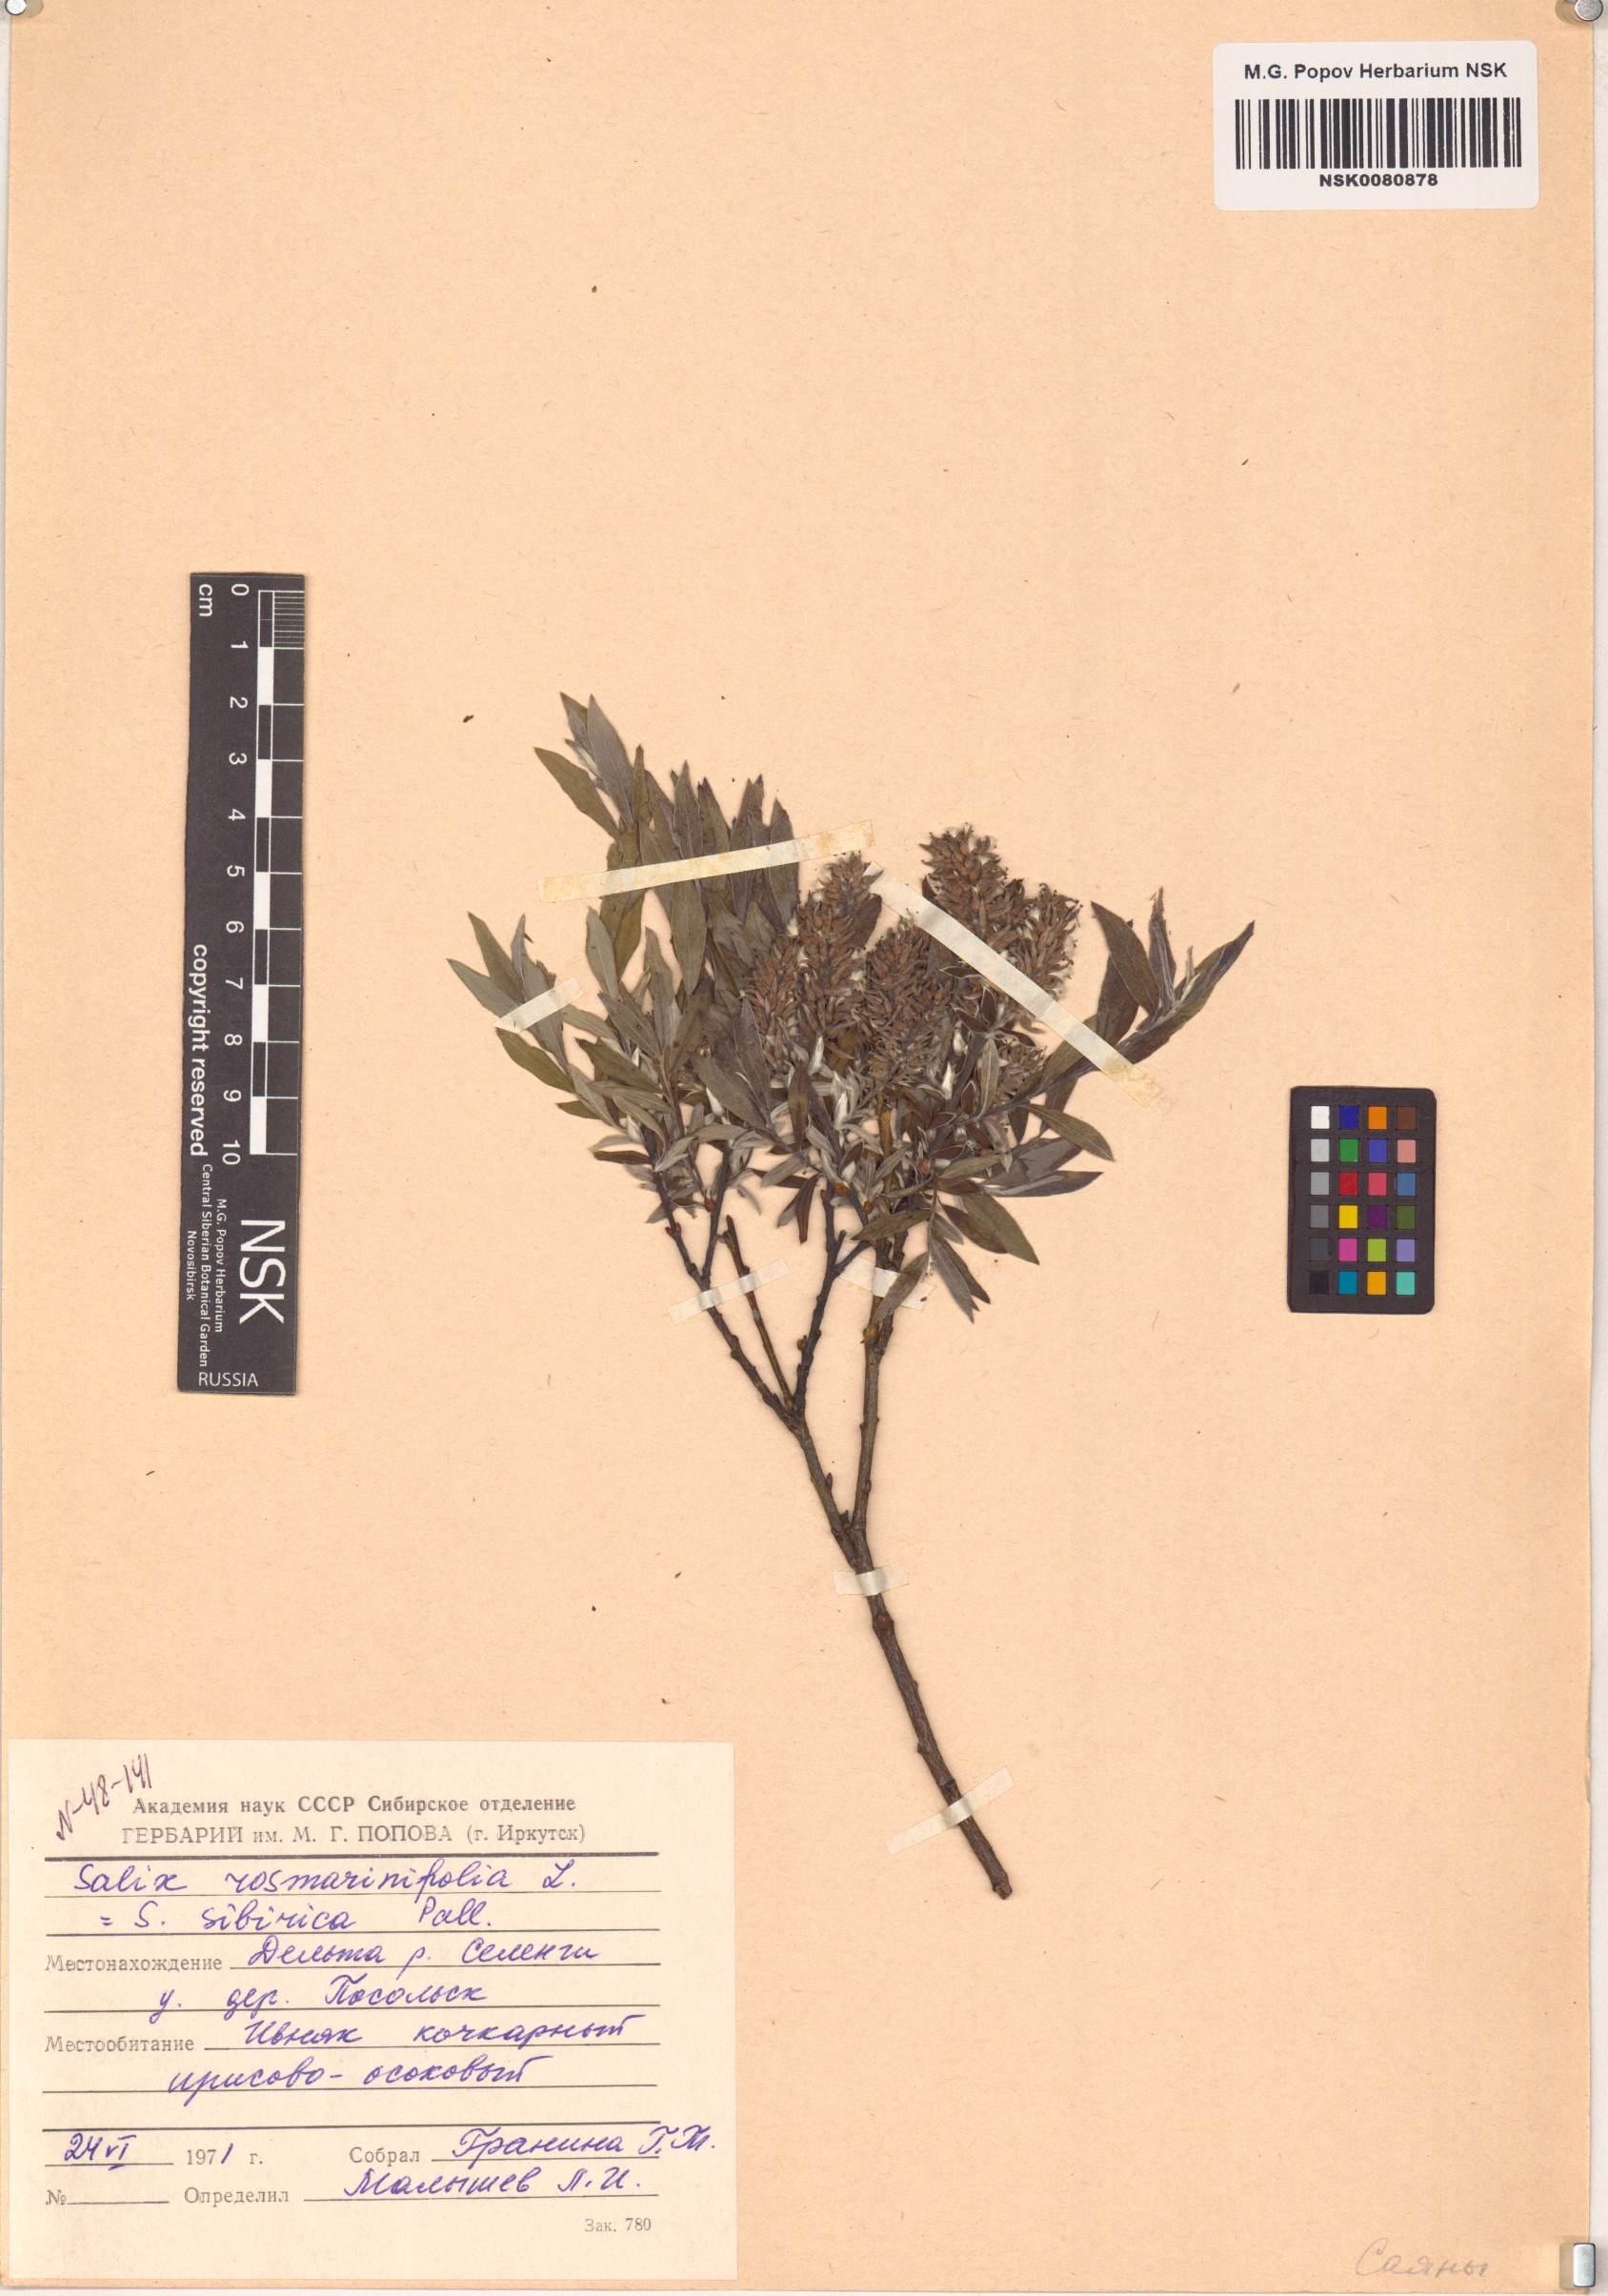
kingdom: Plantae
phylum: Tracheophyta
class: Magnoliopsida
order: Malpighiales
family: Salicaceae
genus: Salix
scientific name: Salix rosmarinifolia
